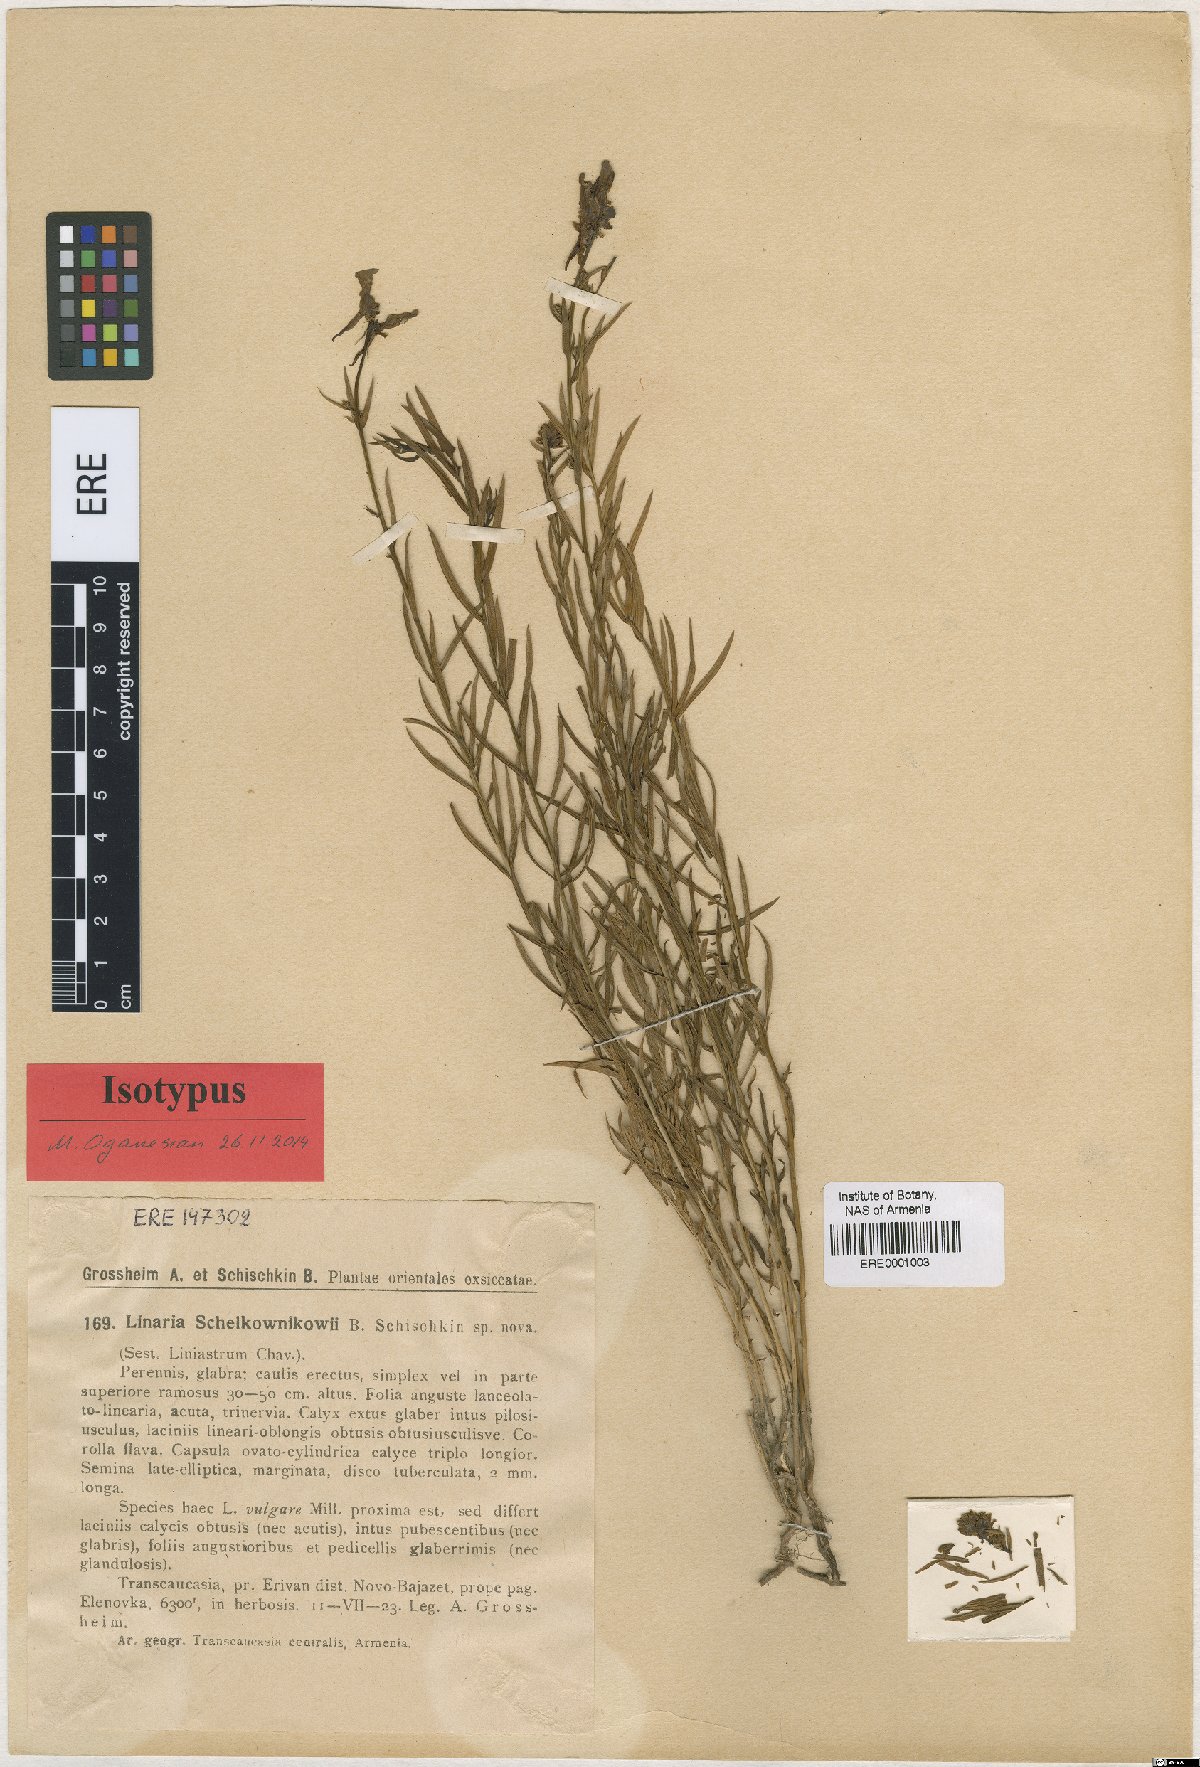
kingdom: Plantae
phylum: Tracheophyta
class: Magnoliopsida
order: Lamiales
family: Plantaginaceae
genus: Linaria
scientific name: Linaria schelkownikowii
